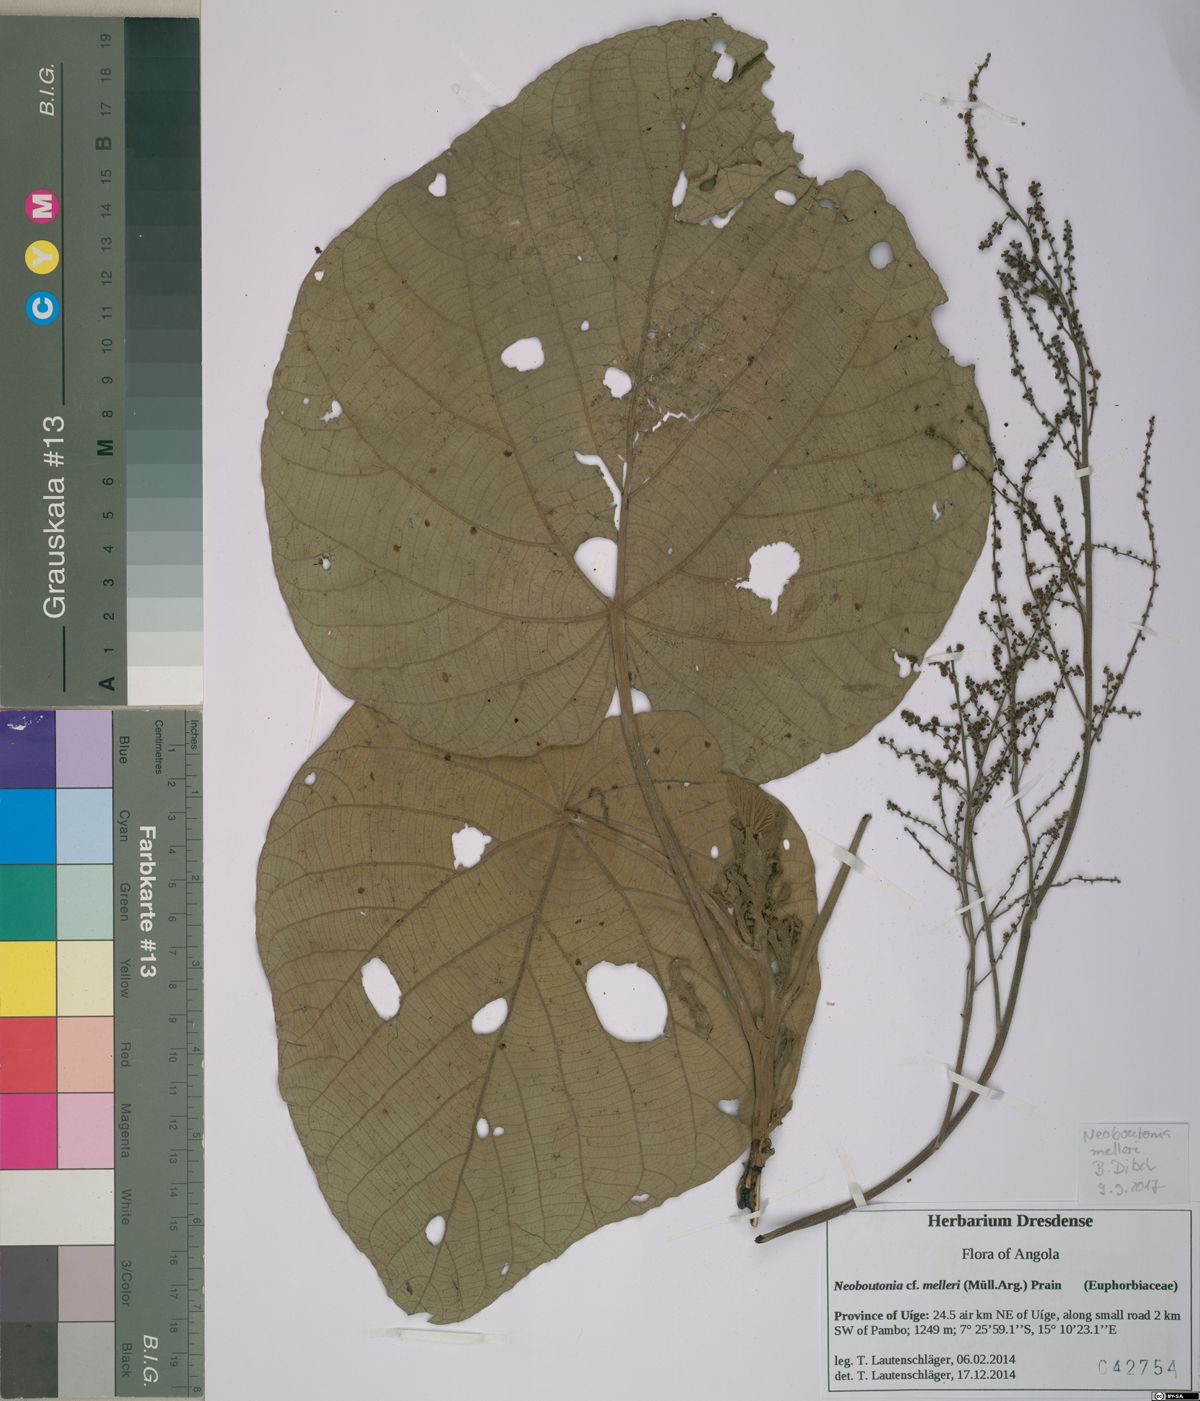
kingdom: Plantae
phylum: Tracheophyta
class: Magnoliopsida
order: Malpighiales
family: Euphorbiaceae
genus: Neoboutonia
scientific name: Neoboutonia melleri
